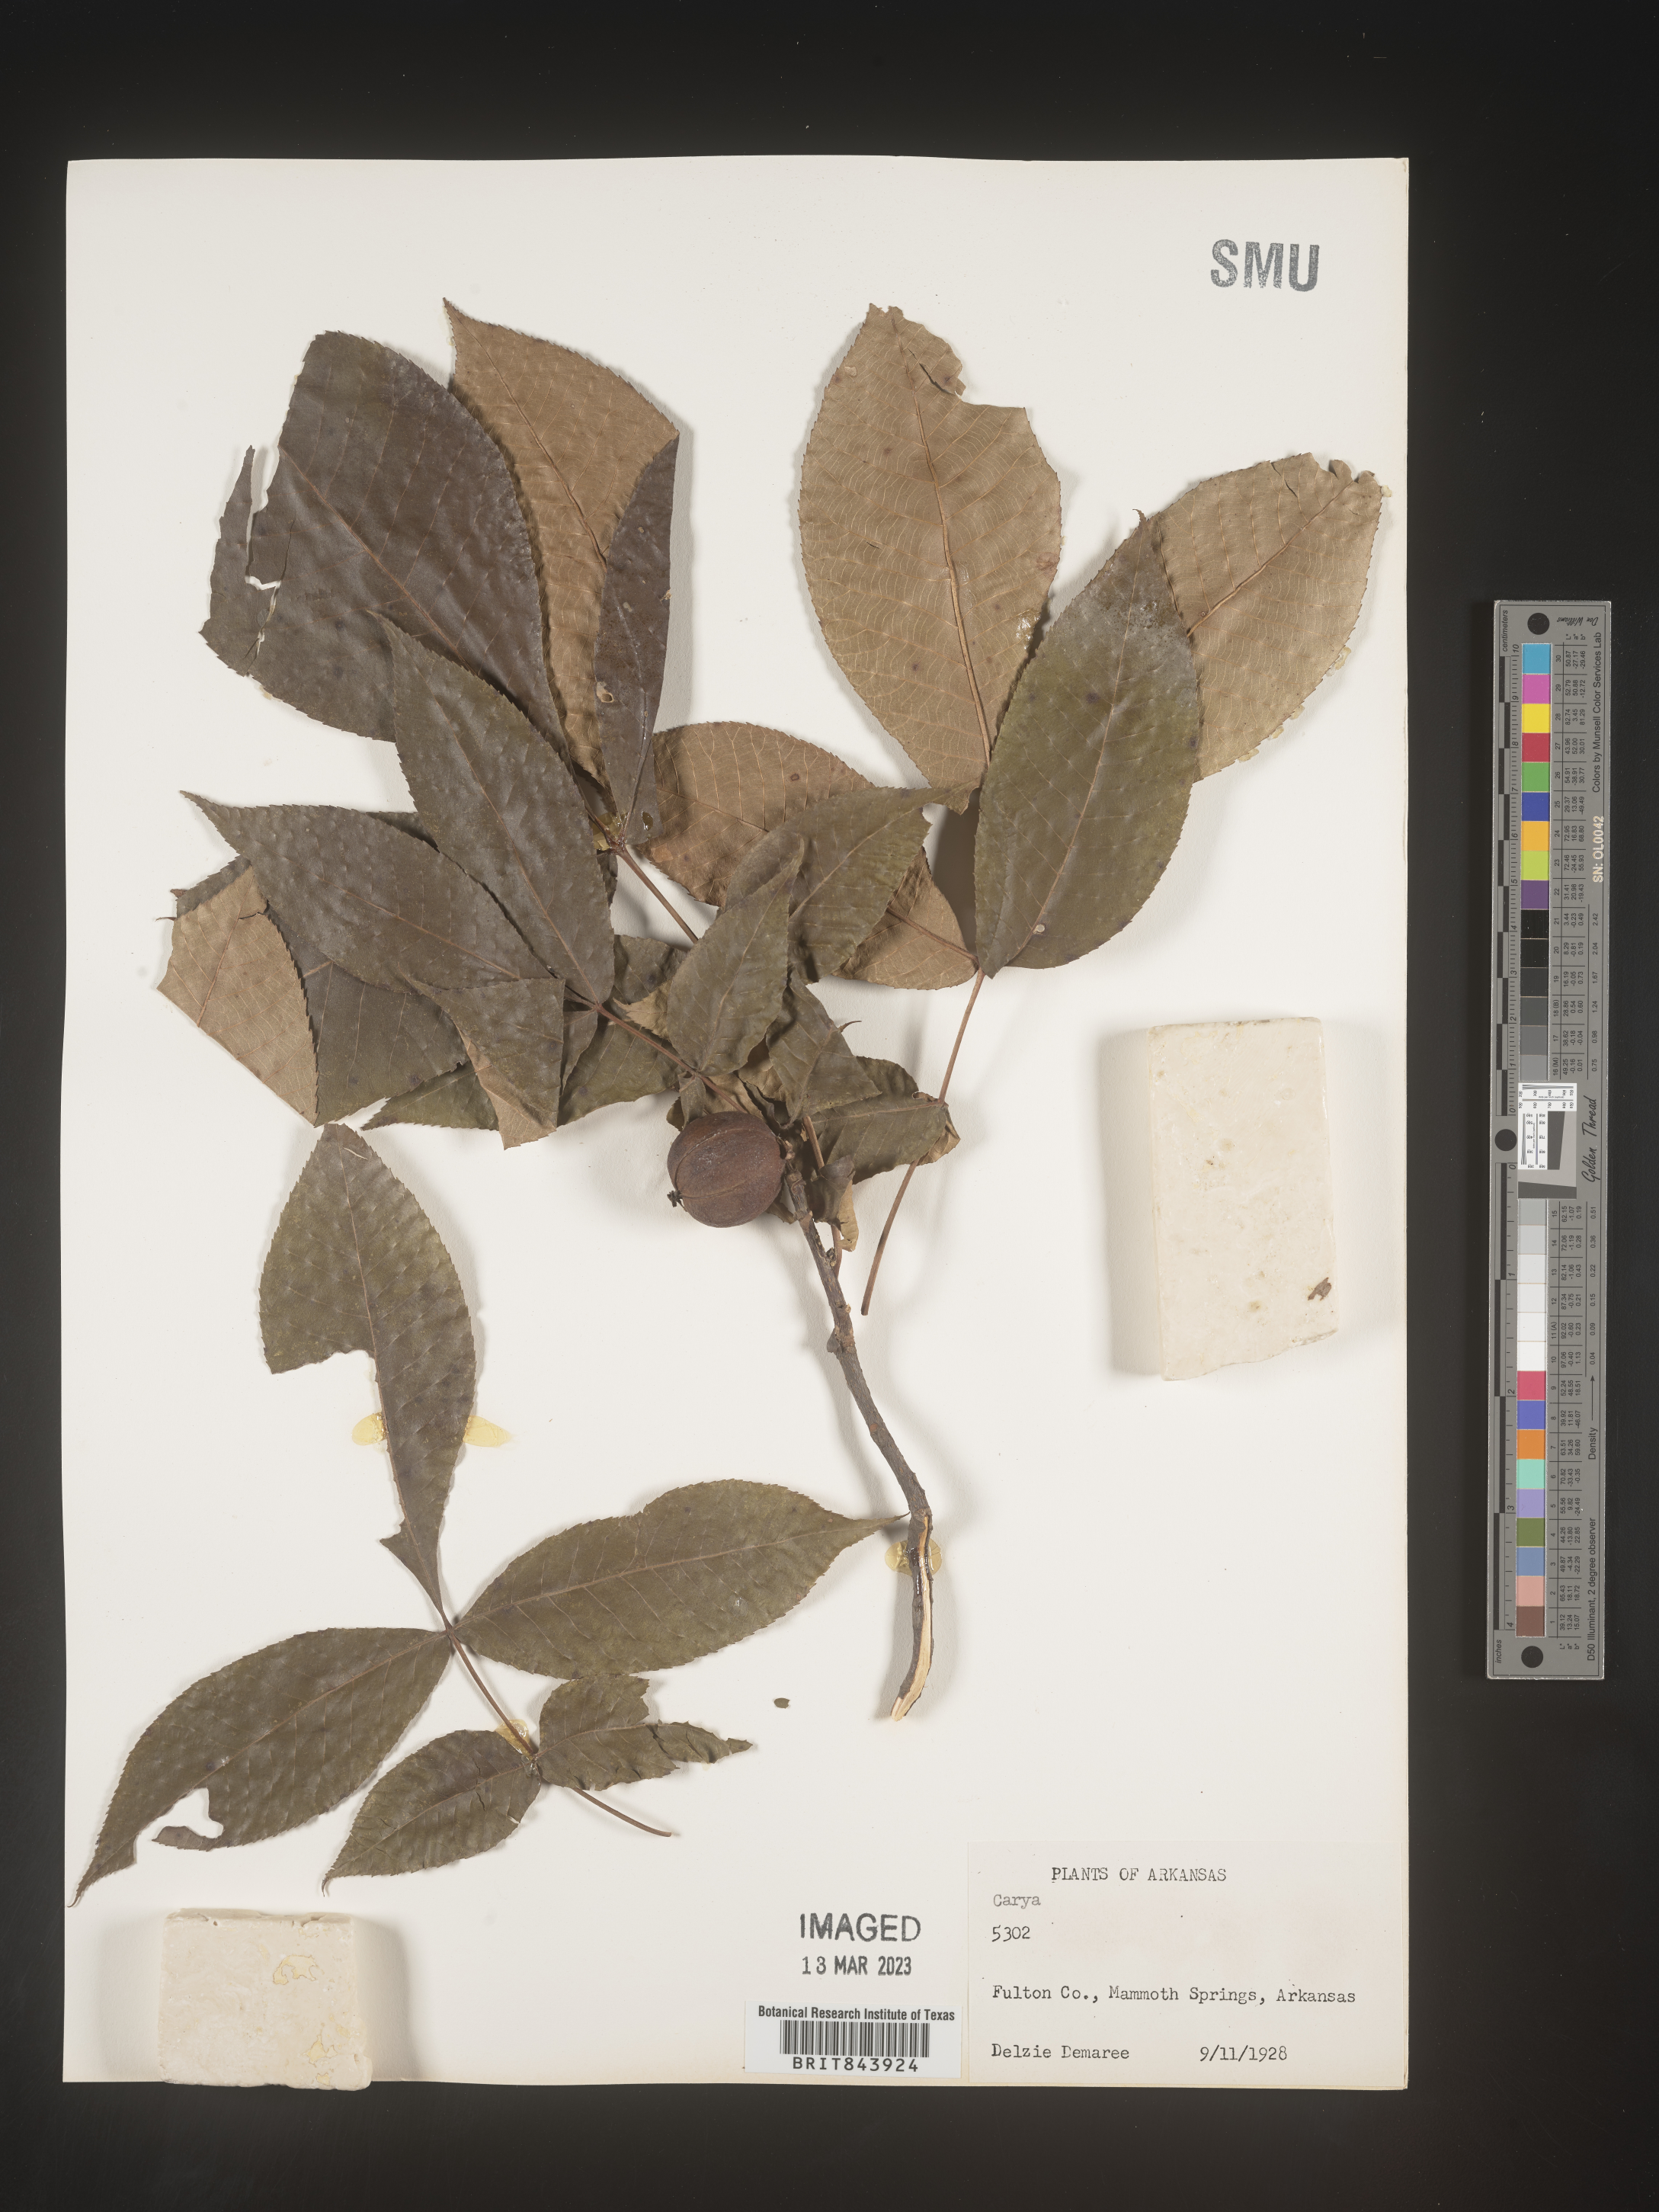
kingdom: Plantae
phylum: Tracheophyta
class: Magnoliopsida
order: Fagales
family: Juglandaceae
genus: Carya
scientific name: Carya
